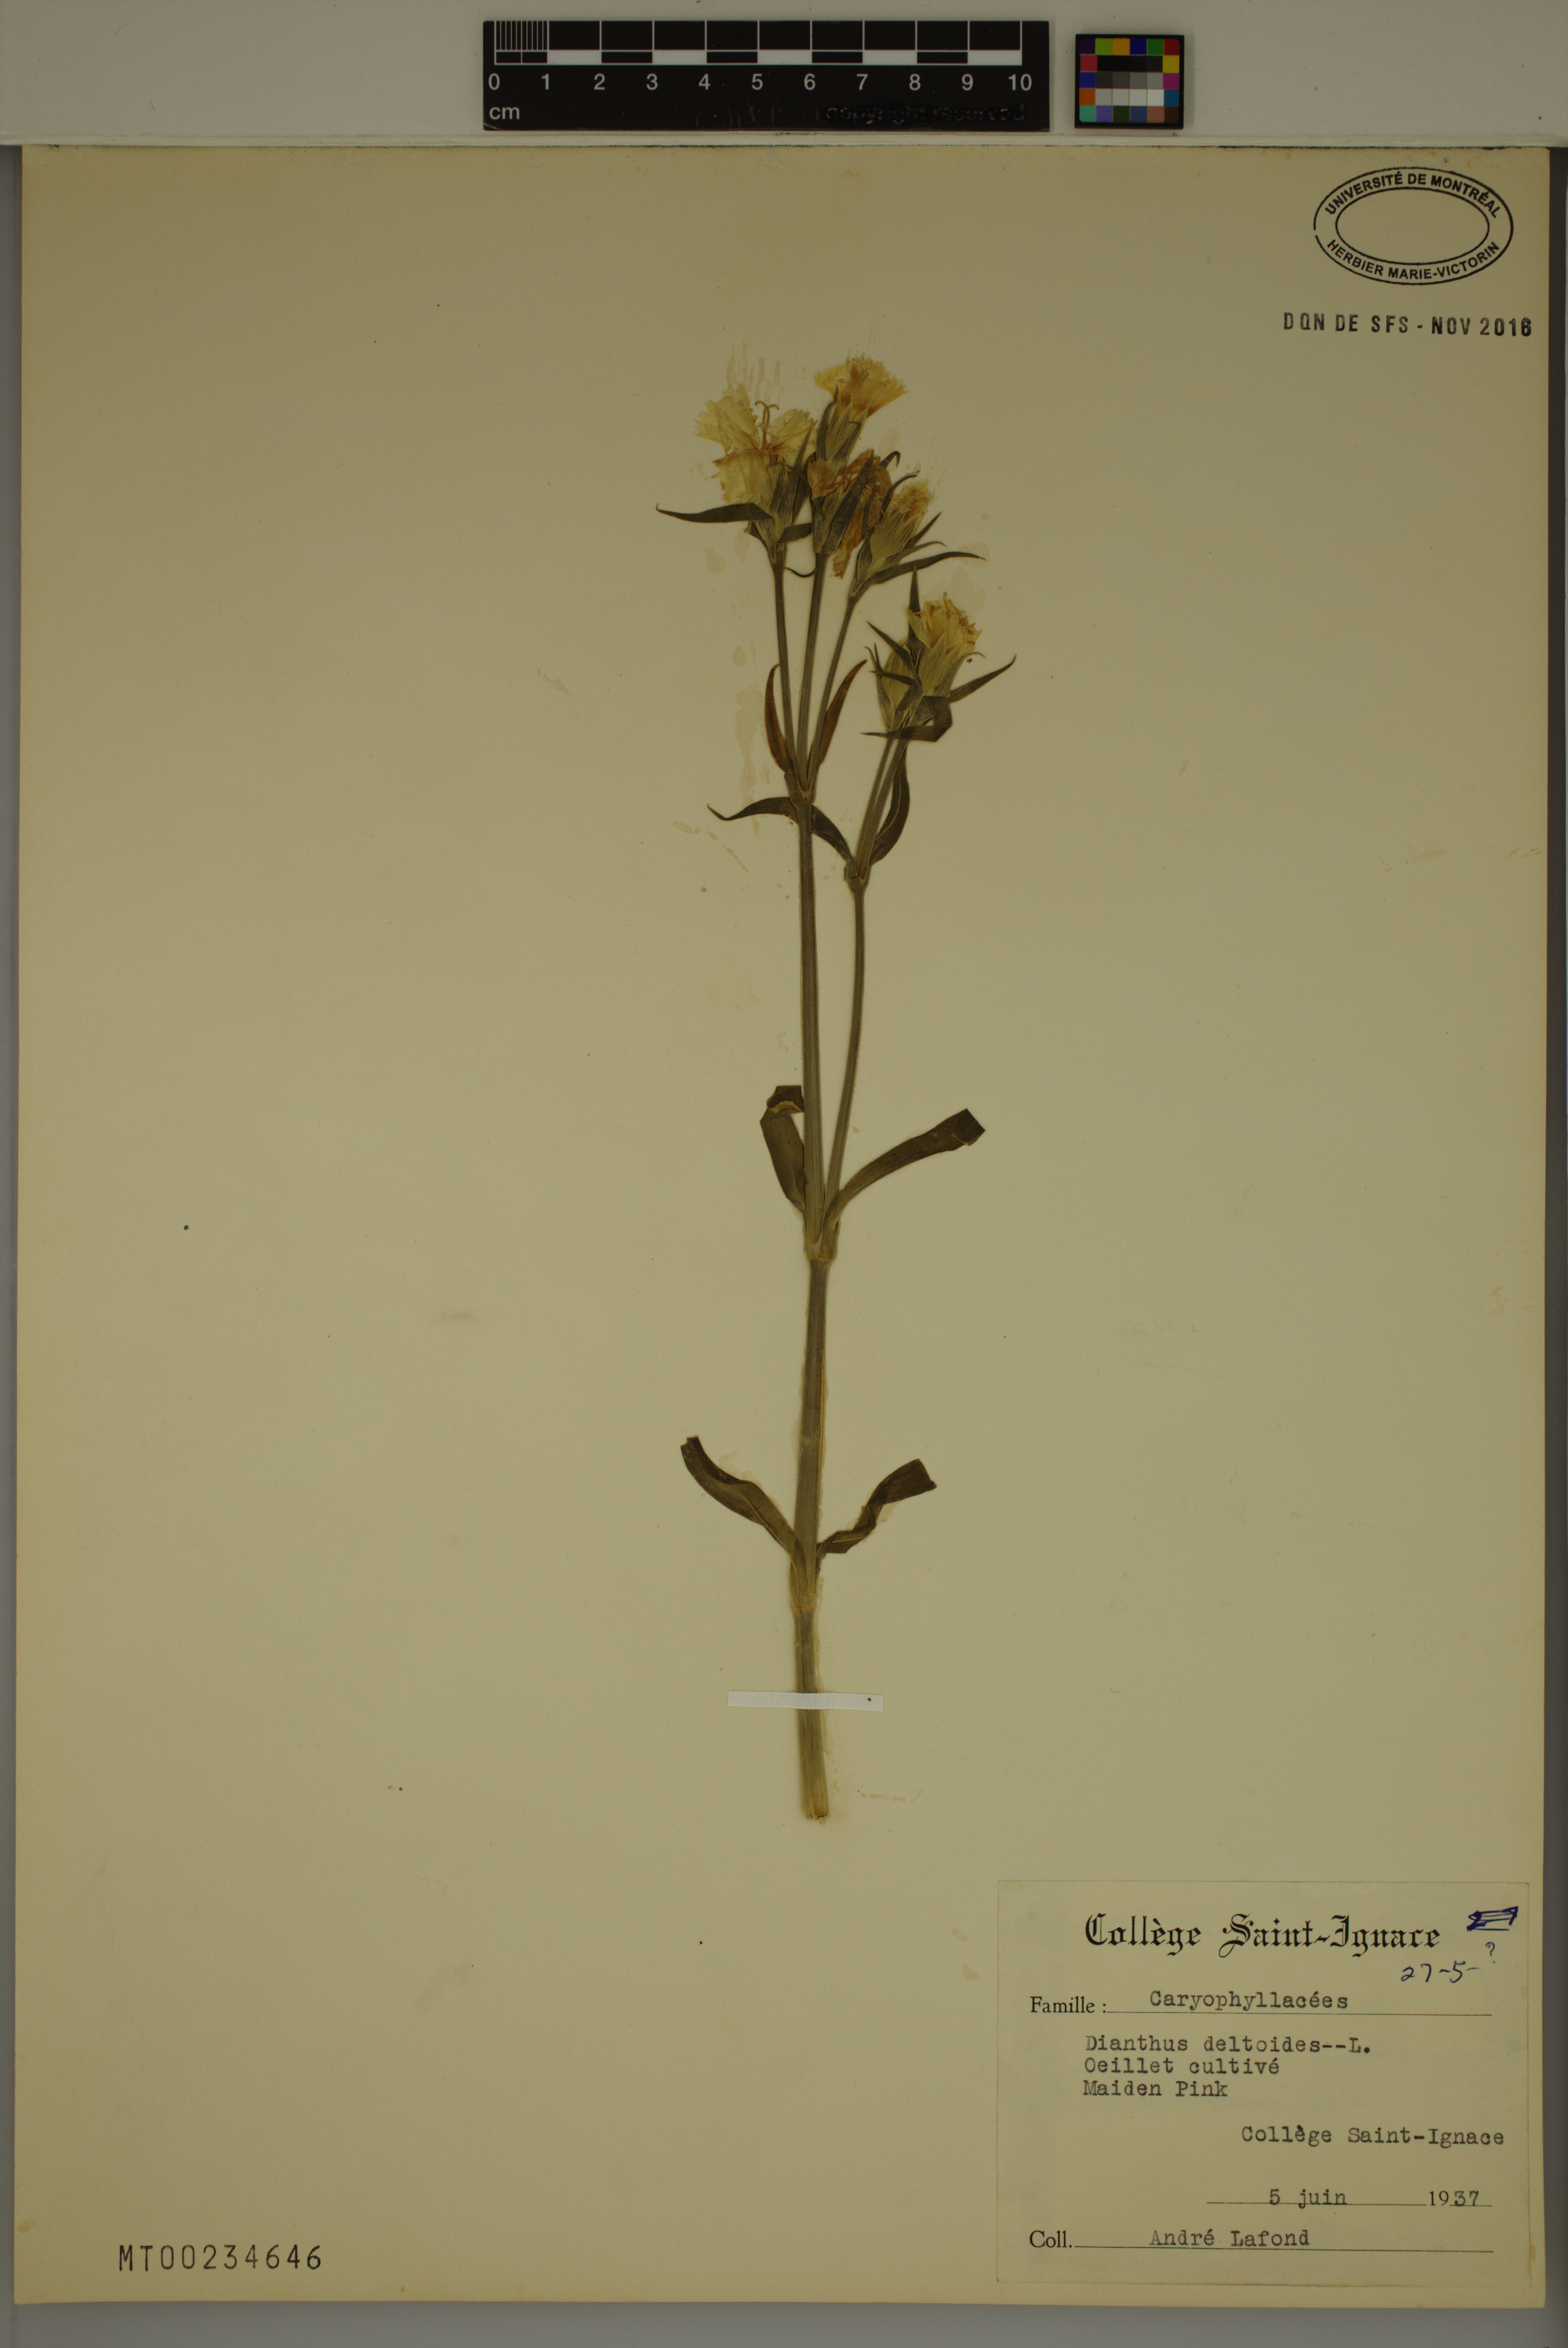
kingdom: Plantae
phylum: Tracheophyta
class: Magnoliopsida
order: Caryophyllales
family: Caryophyllaceae
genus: Dianthus
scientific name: Dianthus deltoides
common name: Maiden pink
